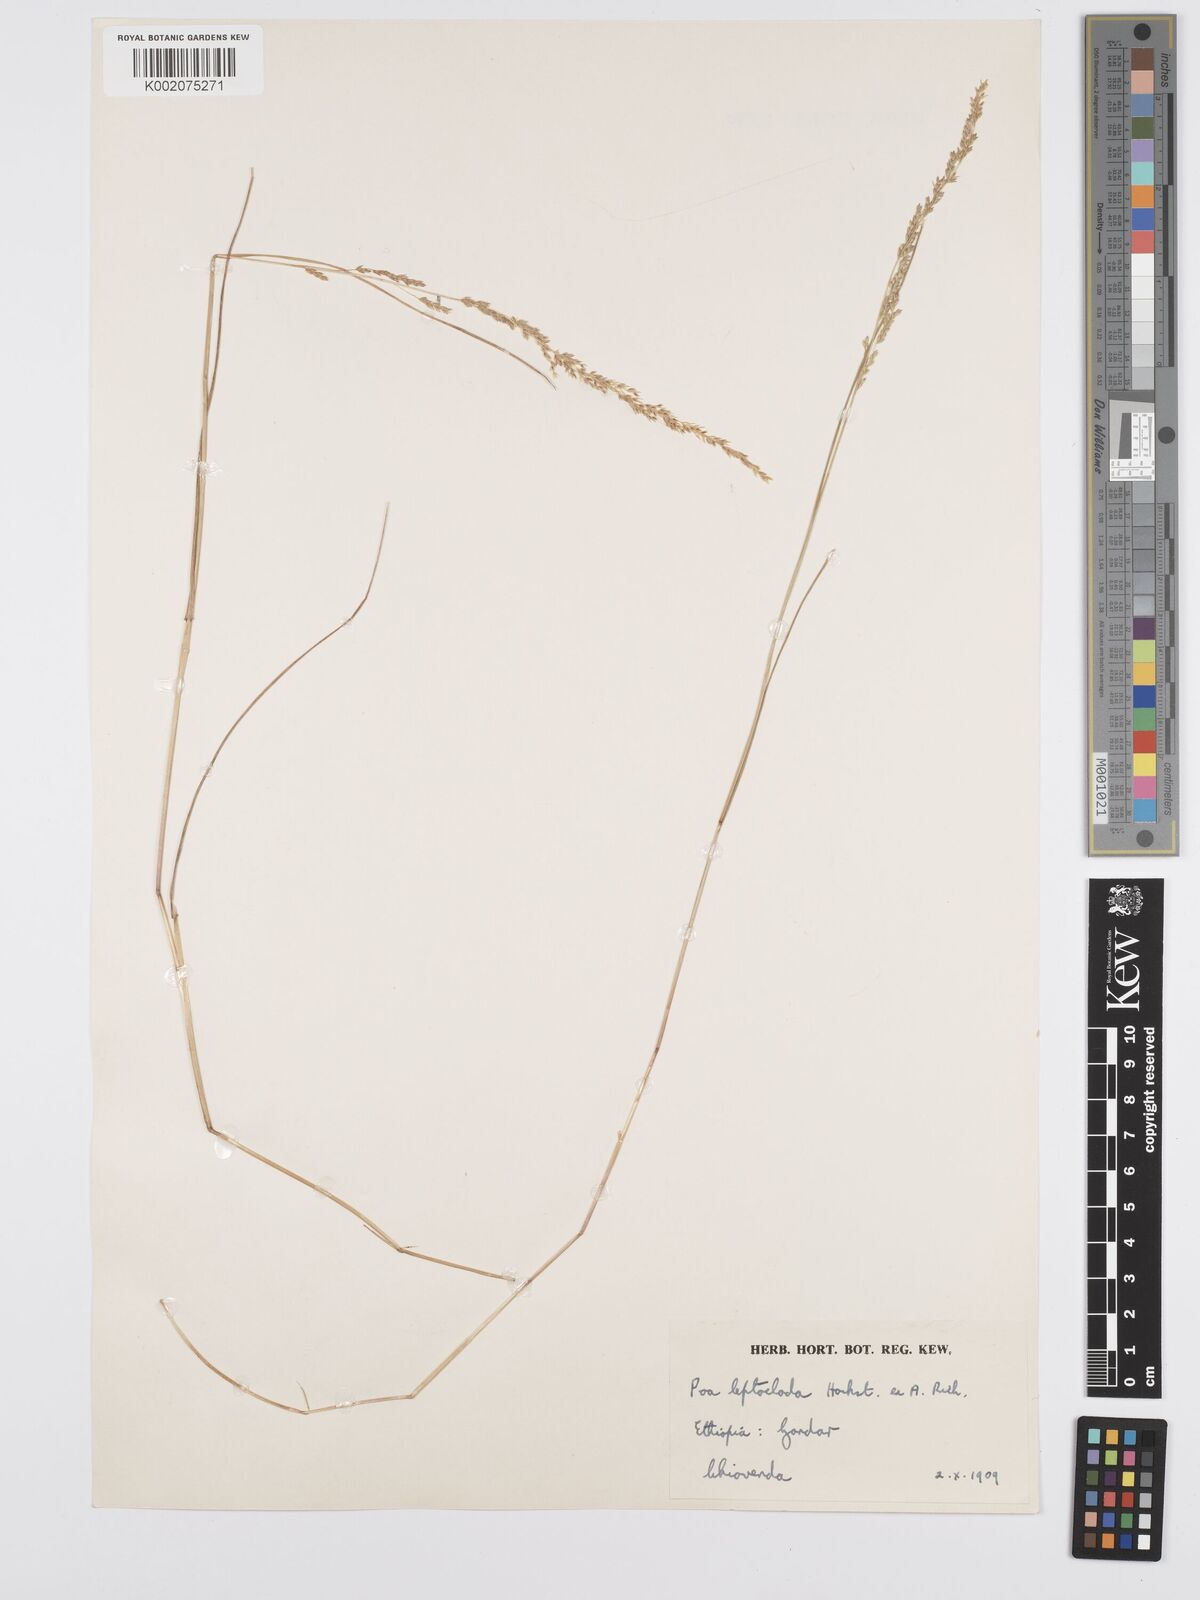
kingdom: Plantae
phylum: Tracheophyta
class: Liliopsida
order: Poales
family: Poaceae
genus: Poa
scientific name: Poa leptoclada
